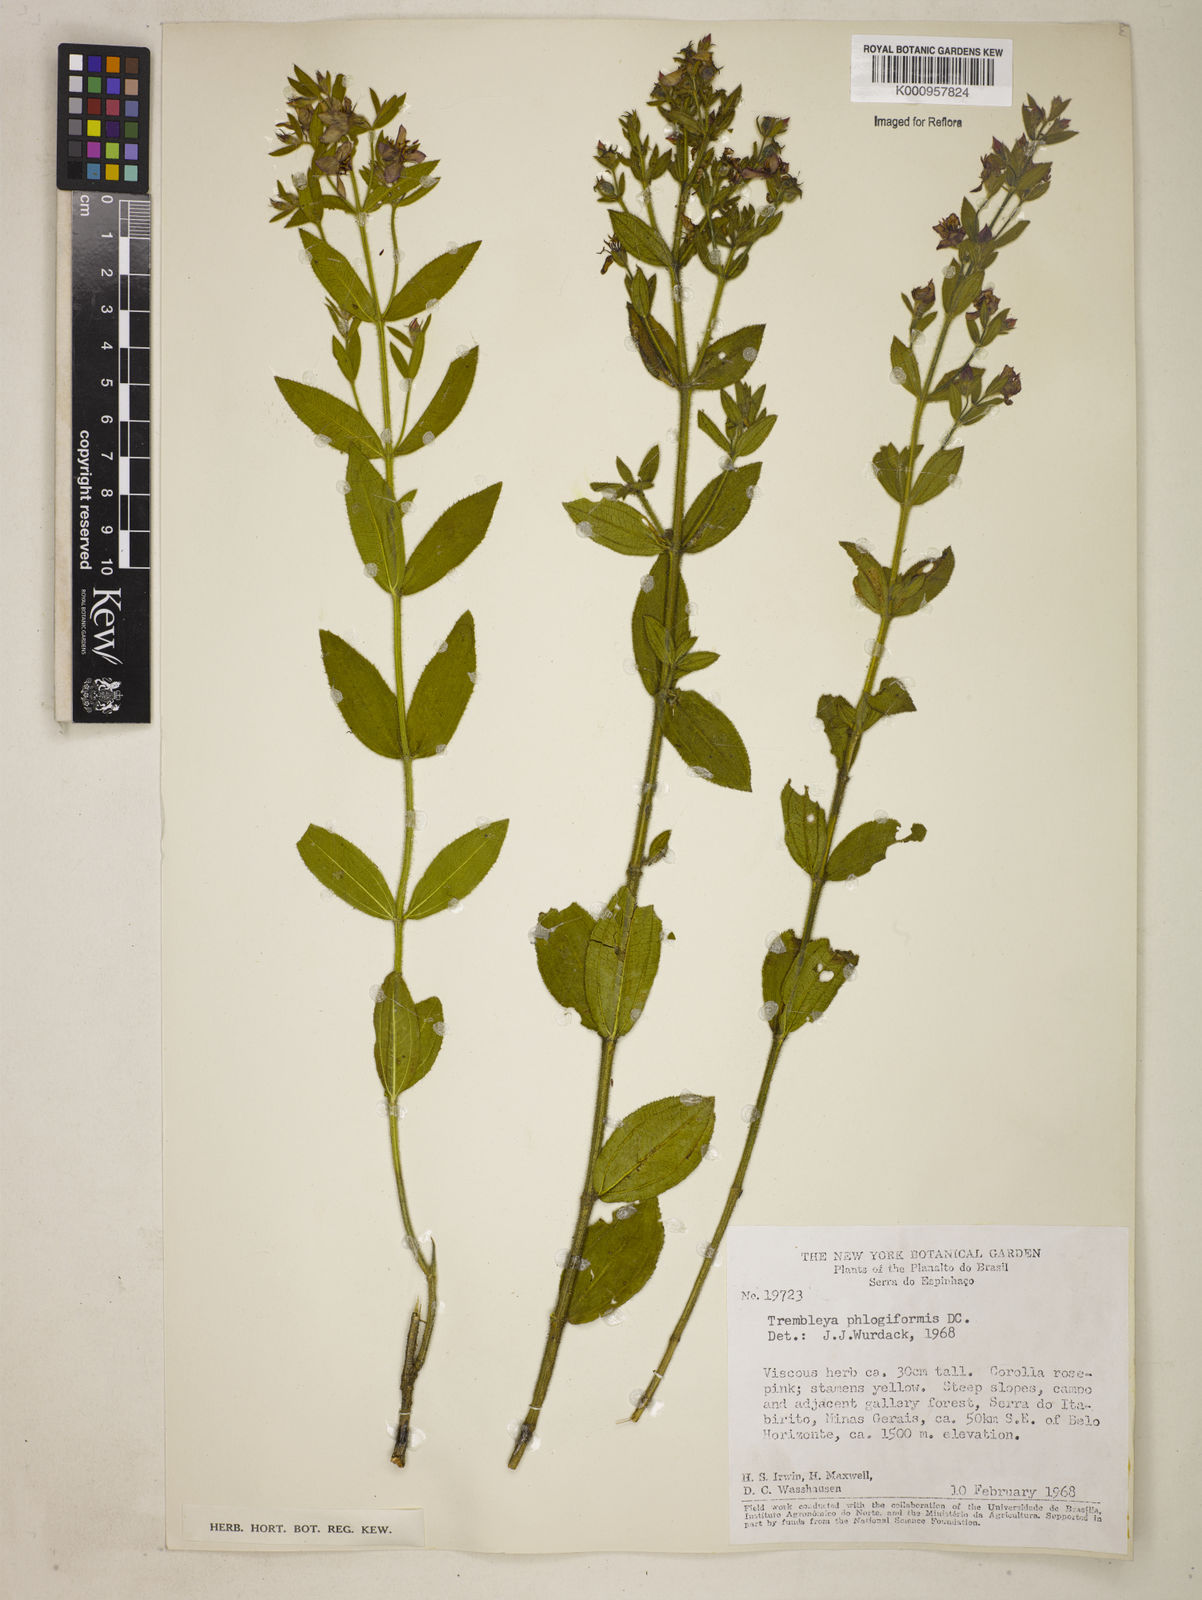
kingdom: Plantae
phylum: Tracheophyta
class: Magnoliopsida
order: Myrtales
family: Melastomataceae
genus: Microlicia
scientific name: Microlicia phlogiformis
